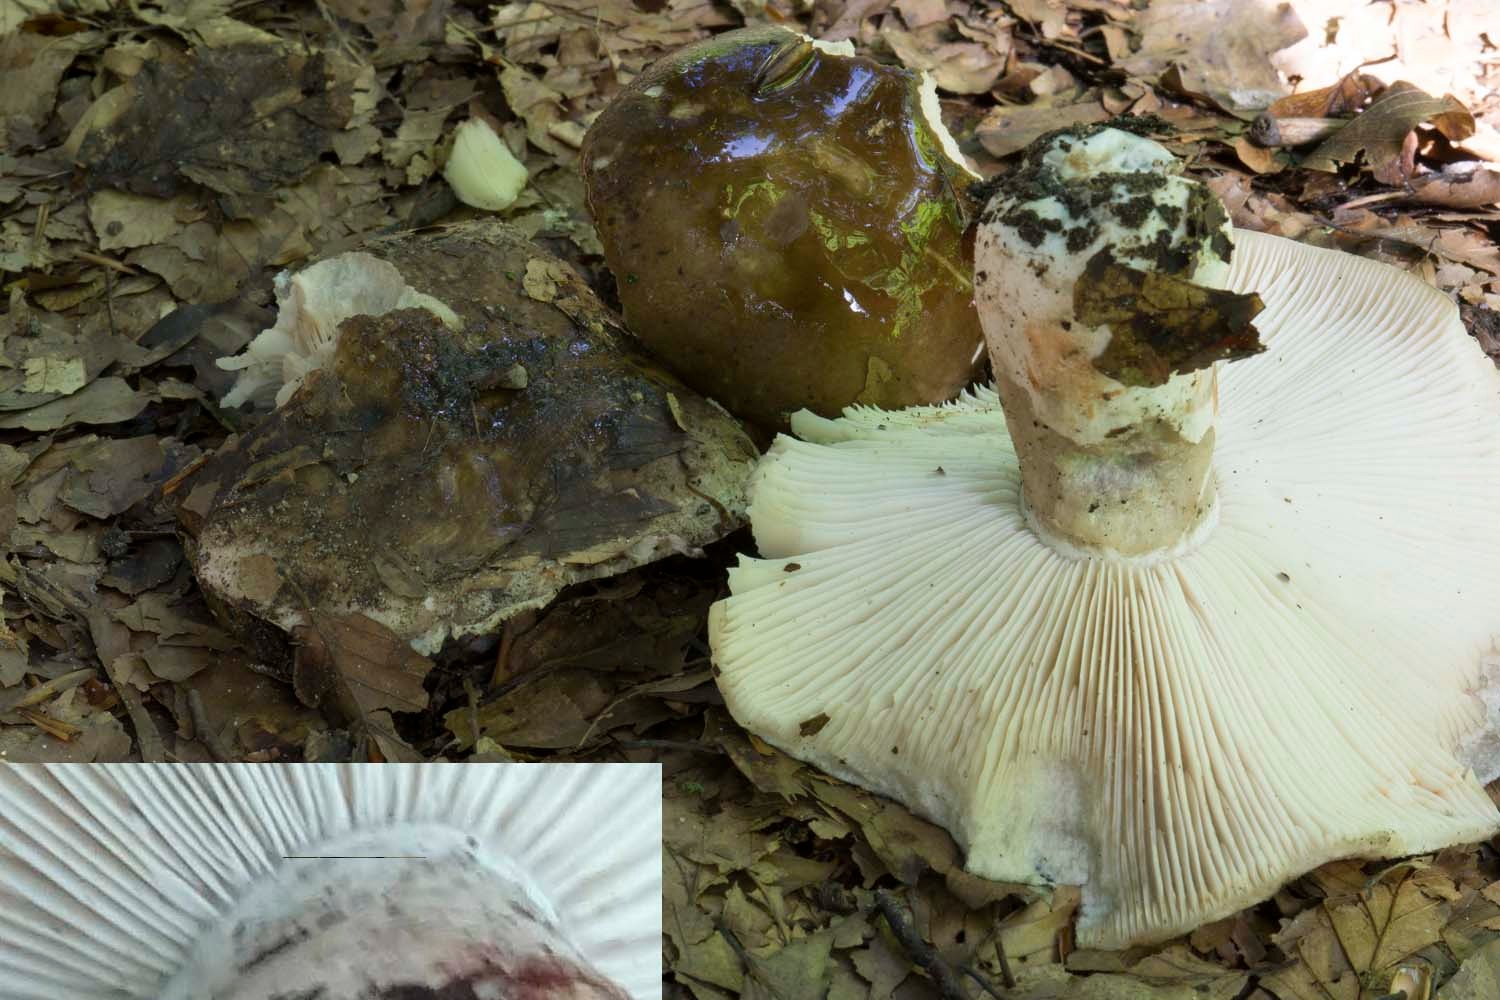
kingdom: Fungi
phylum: Basidiomycota
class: Agaricomycetes
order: Russulales
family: Russulaceae
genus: Russula
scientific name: Russula acrifolia
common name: skarpbladet skørhat
